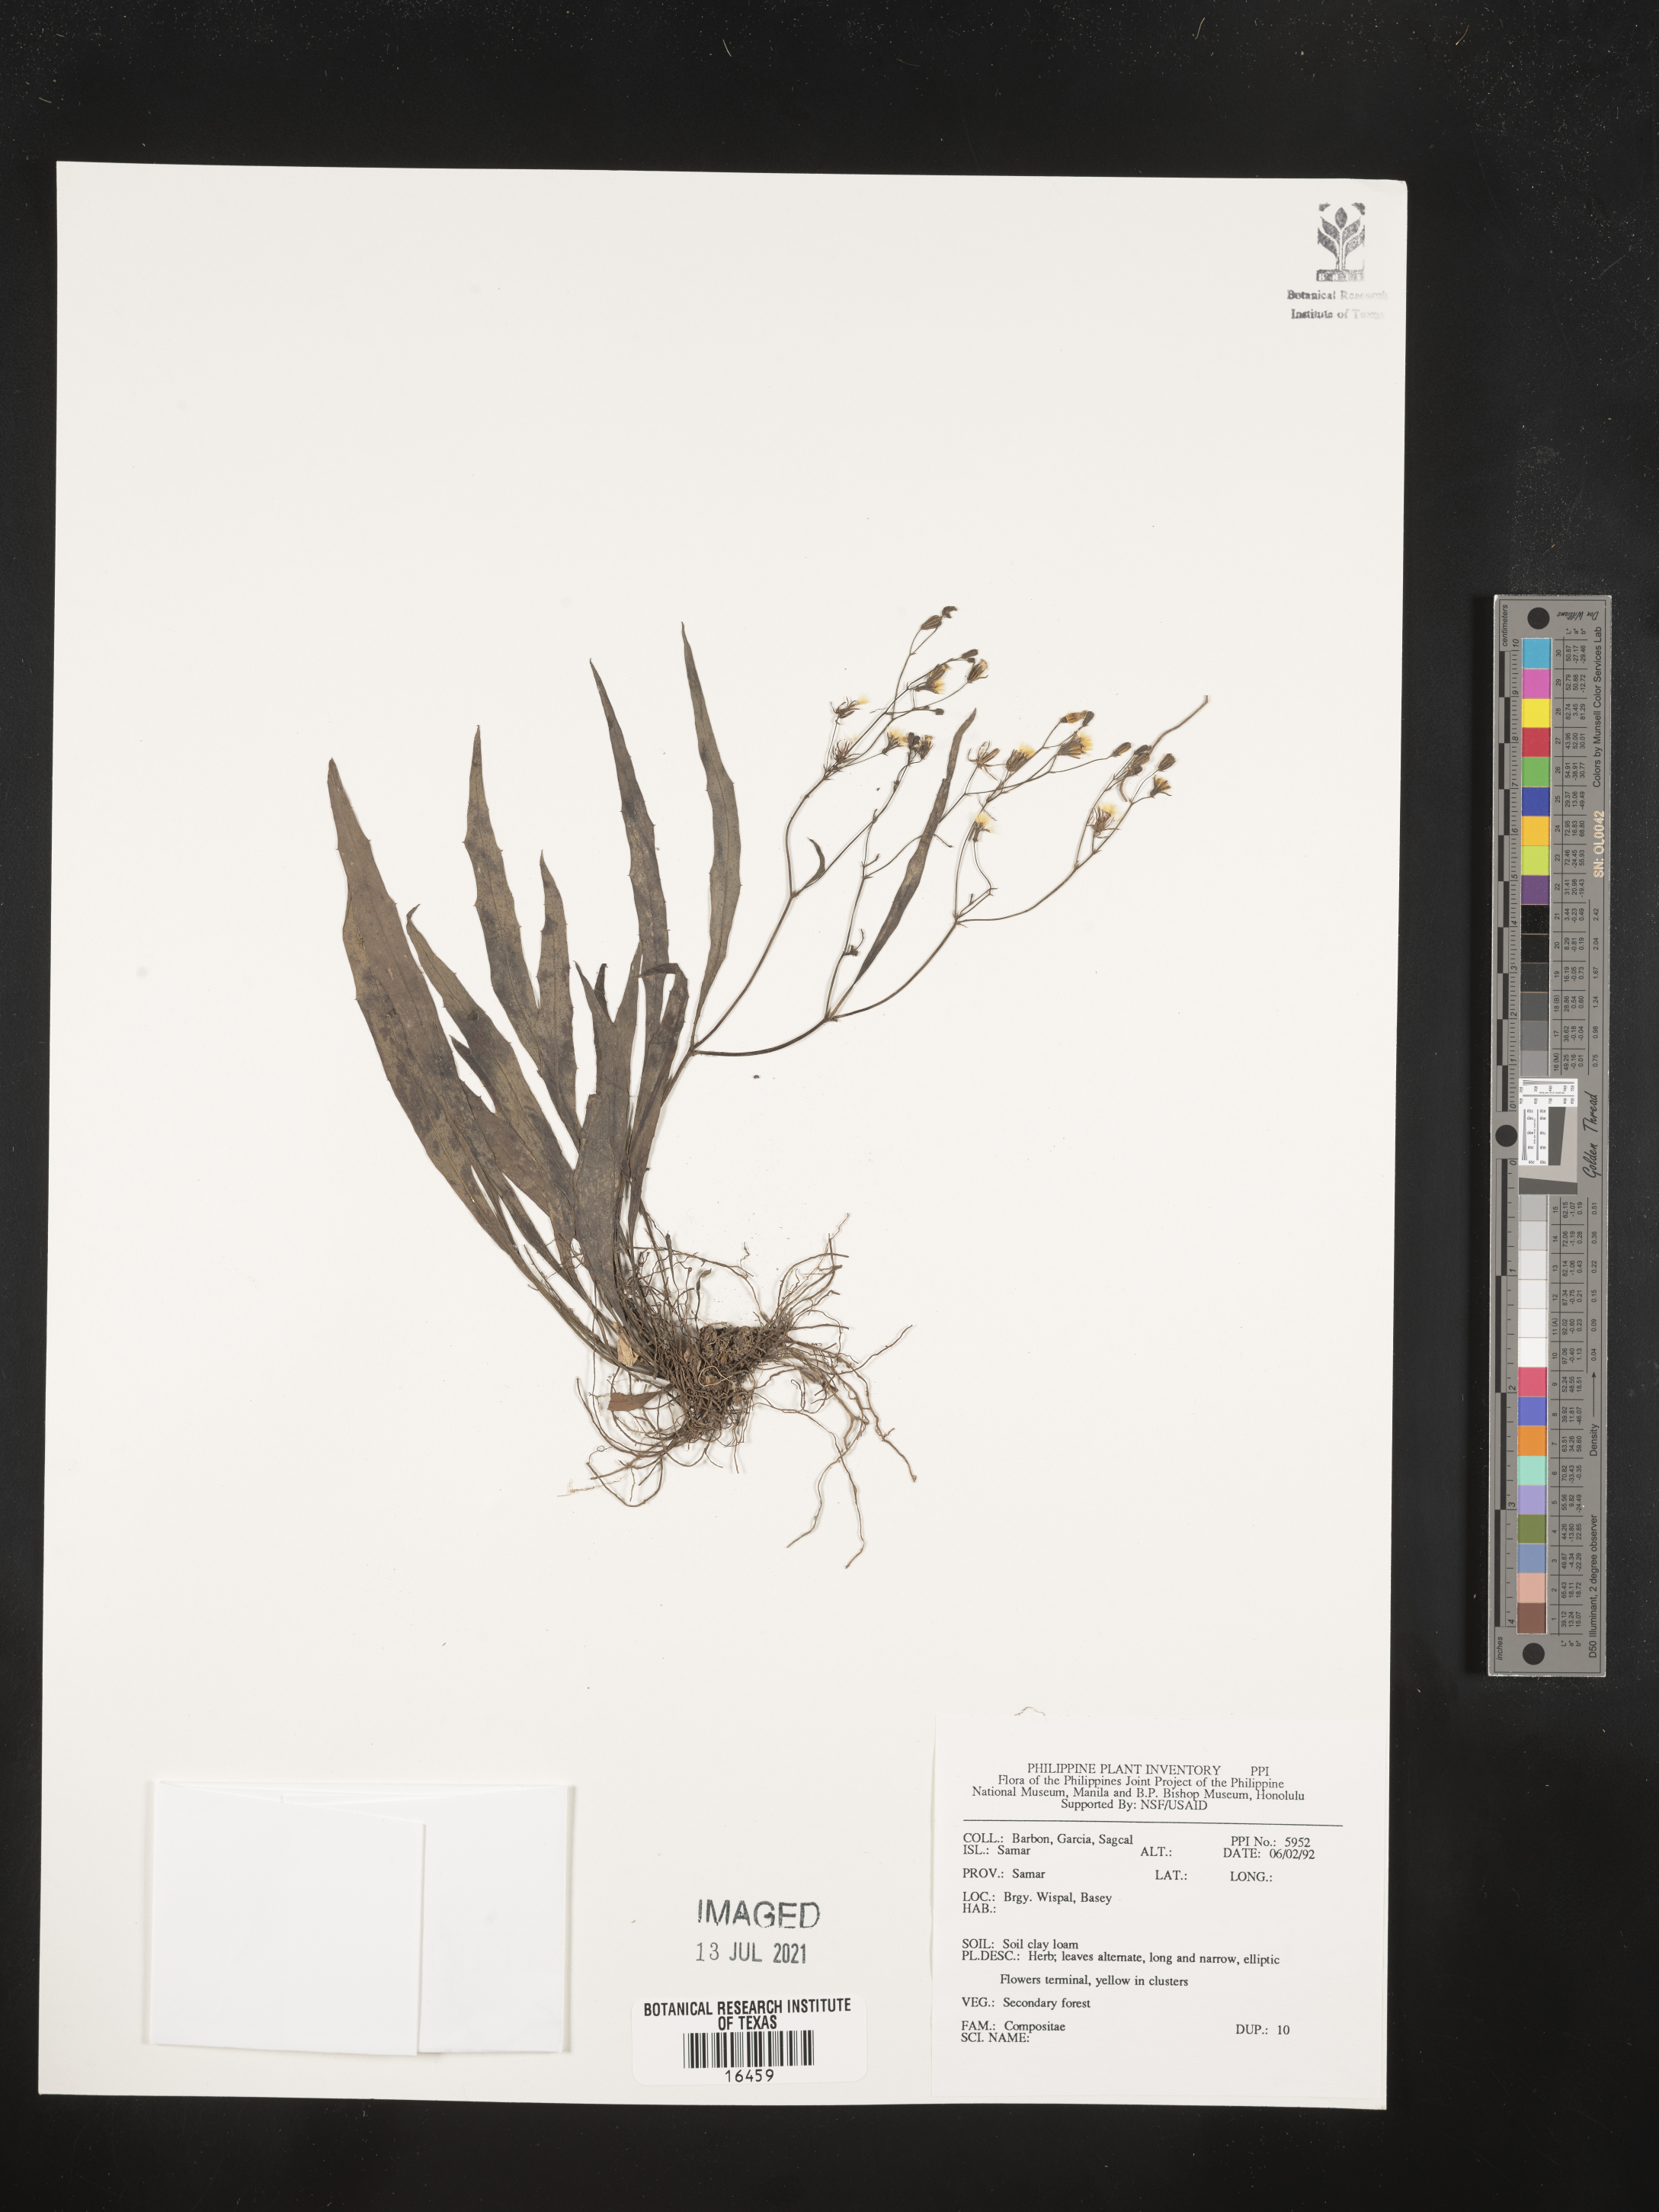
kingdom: Plantae
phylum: Tracheophyta
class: Magnoliopsida
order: Asterales
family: Asteraceae
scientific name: Asteraceae
